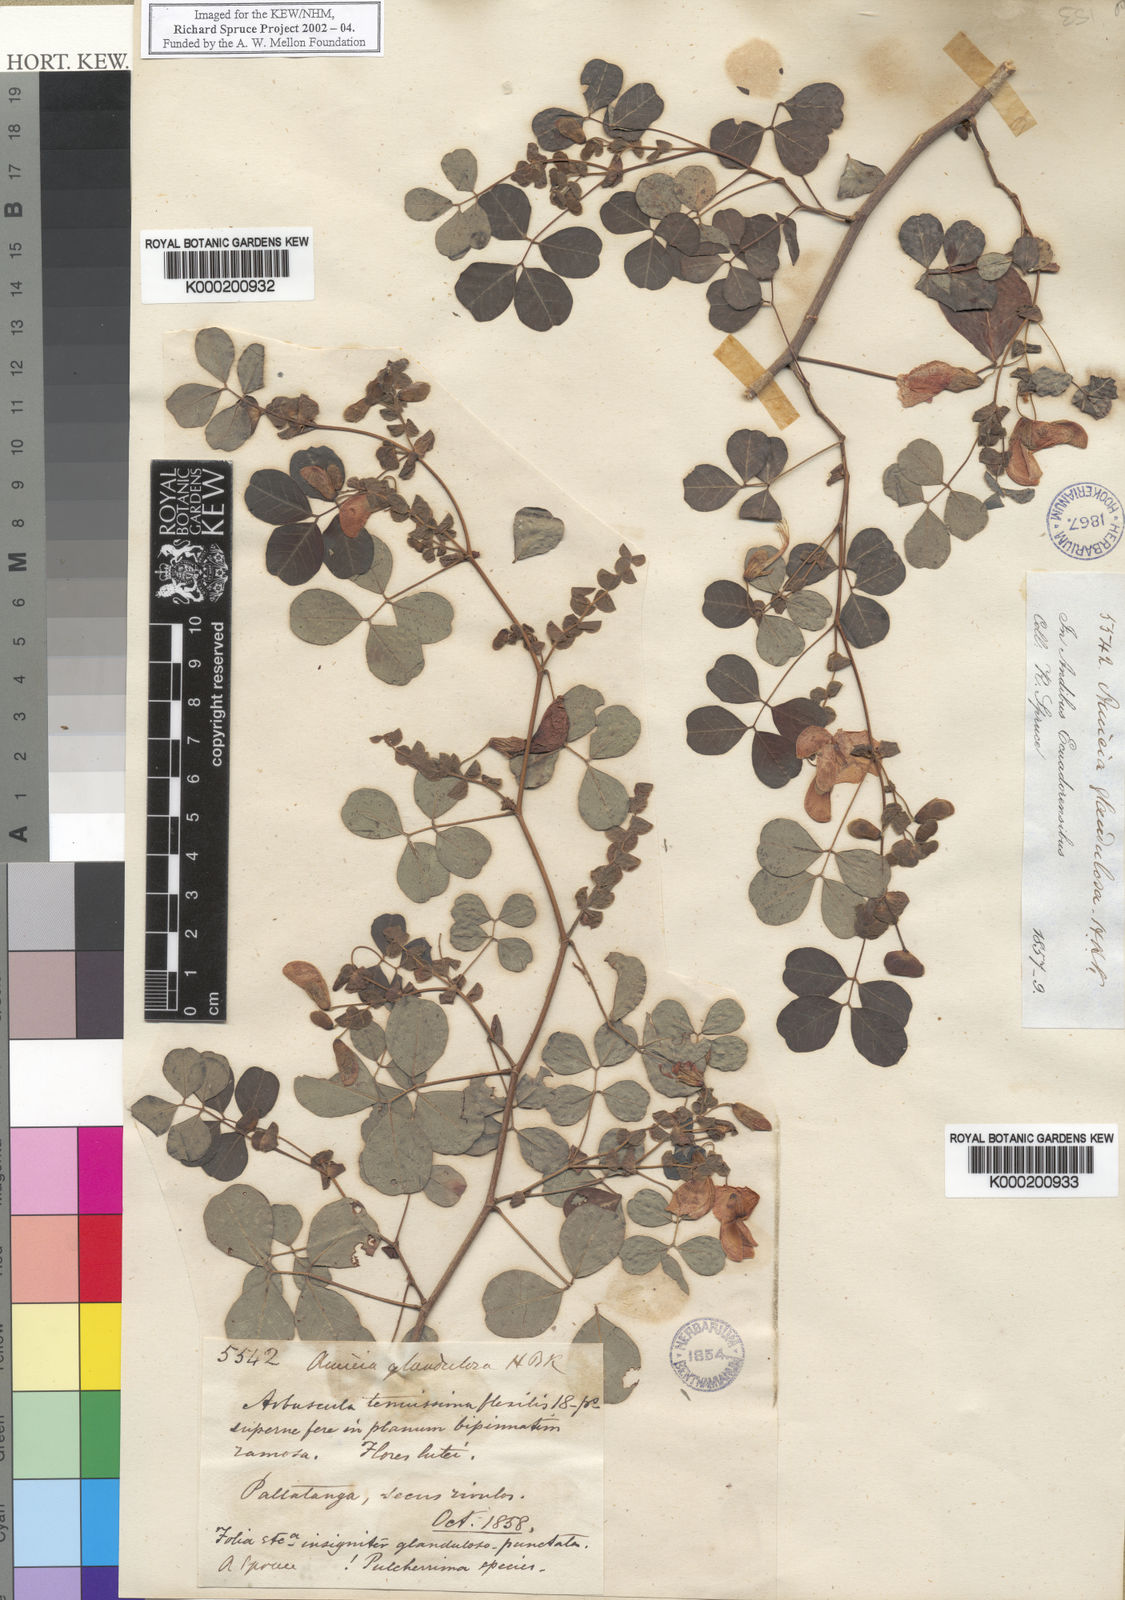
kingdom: Plantae
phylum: Tracheophyta
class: Magnoliopsida
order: Fabales
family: Fabaceae
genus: Amicia
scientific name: Amicia glandulosa
